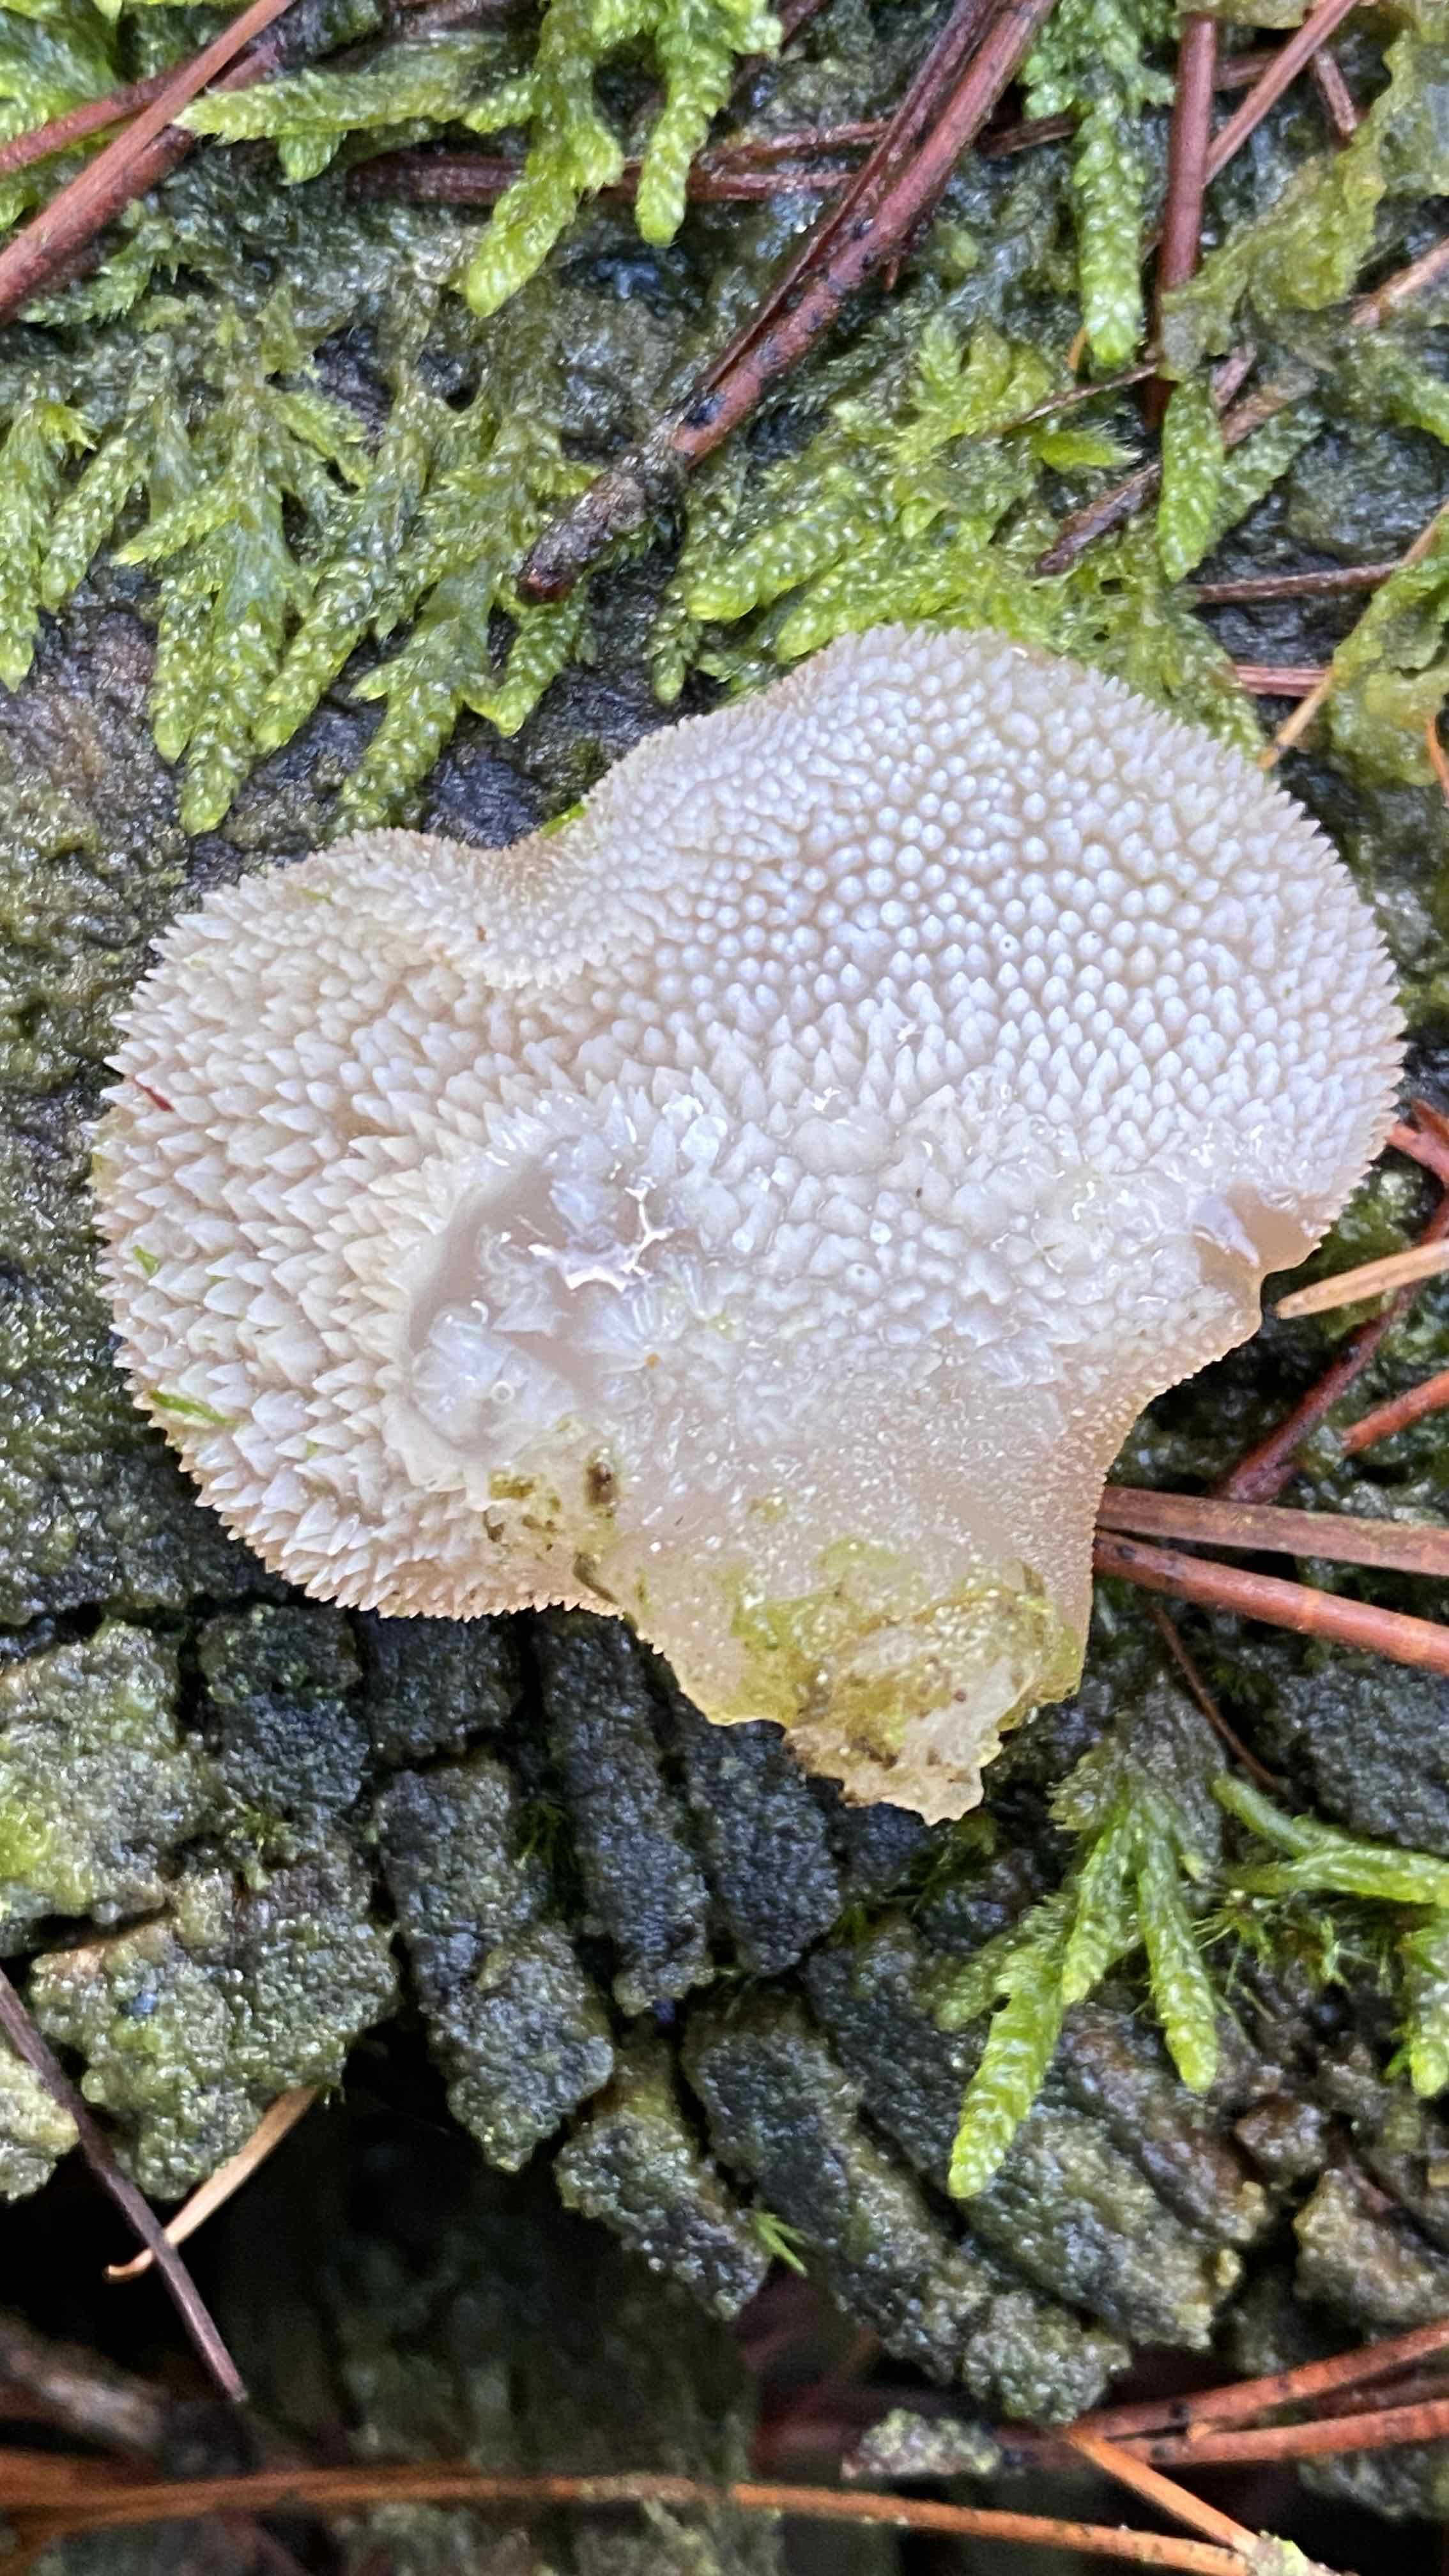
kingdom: Fungi
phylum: Basidiomycota
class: Agaricomycetes
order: Auriculariales
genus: Pseudohydnum
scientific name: Pseudohydnum gelatinosum
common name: bævretand
